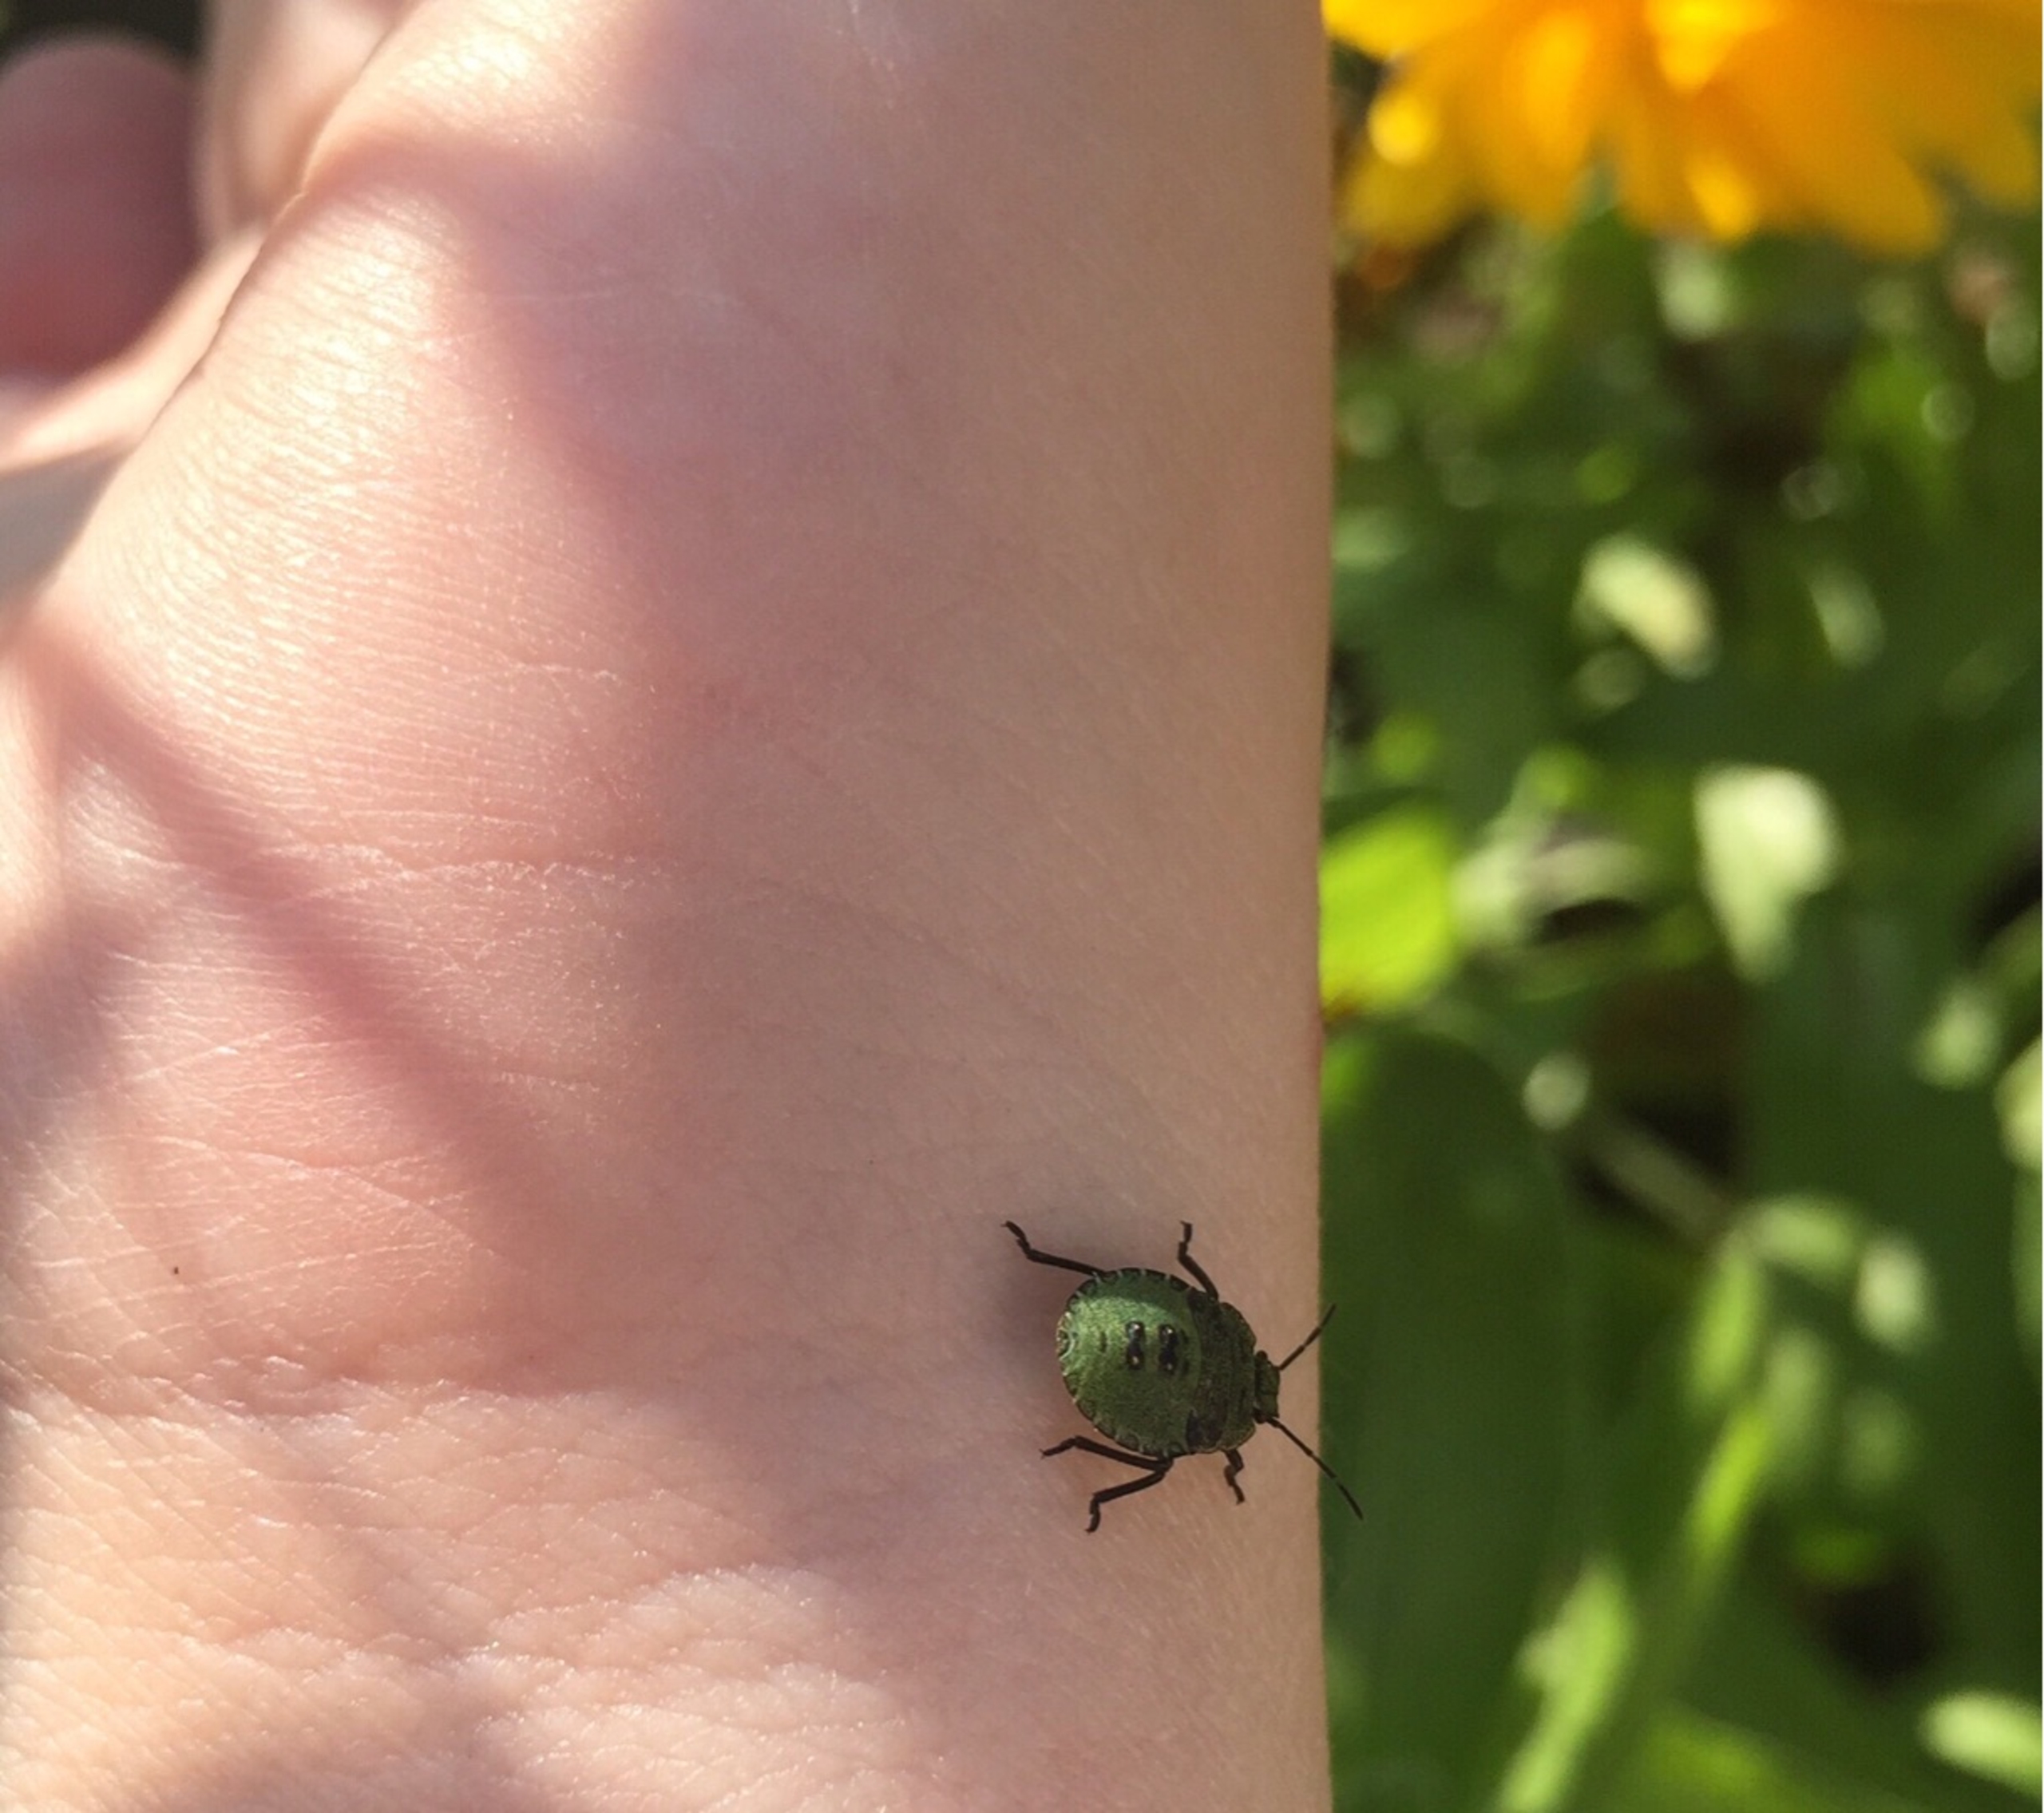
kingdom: Animalia
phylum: Arthropoda
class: Insecta
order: Hemiptera
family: Pentatomidae
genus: Palomena
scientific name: Palomena prasina
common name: Grøn bredtæge
